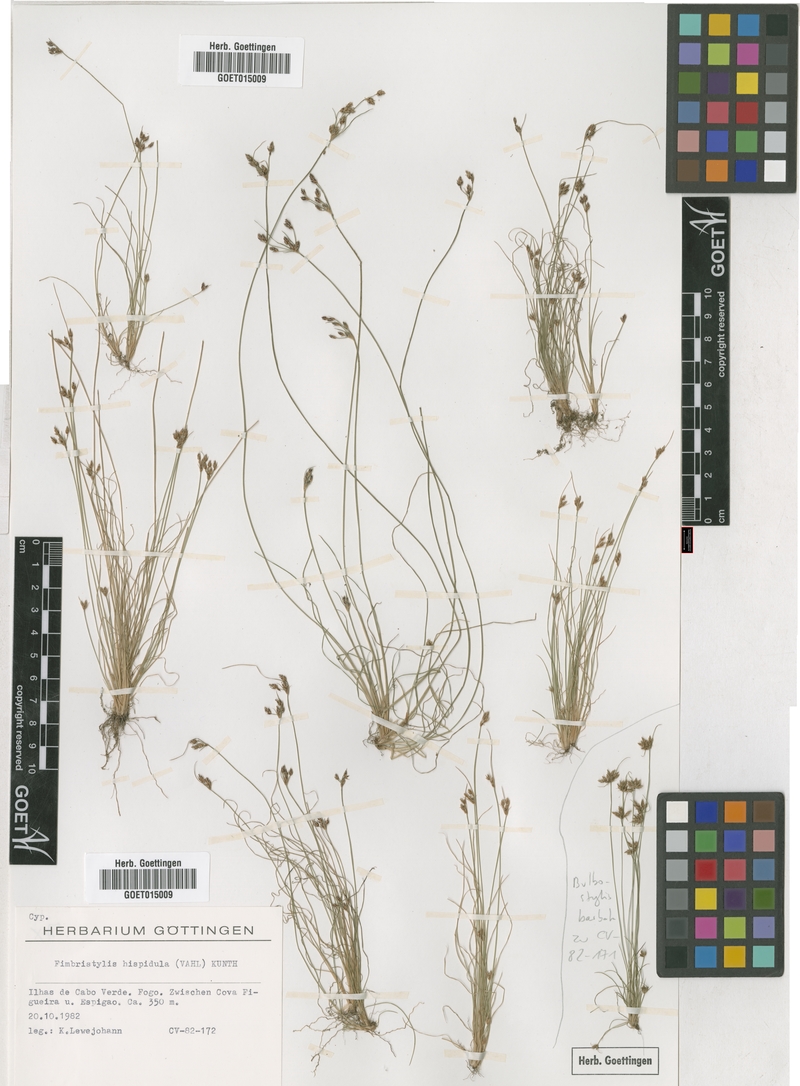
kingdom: Plantae
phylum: Tracheophyta
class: Liliopsida
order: Poales
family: Cyperaceae
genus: Bulbostylis
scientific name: Bulbostylis hispidula
